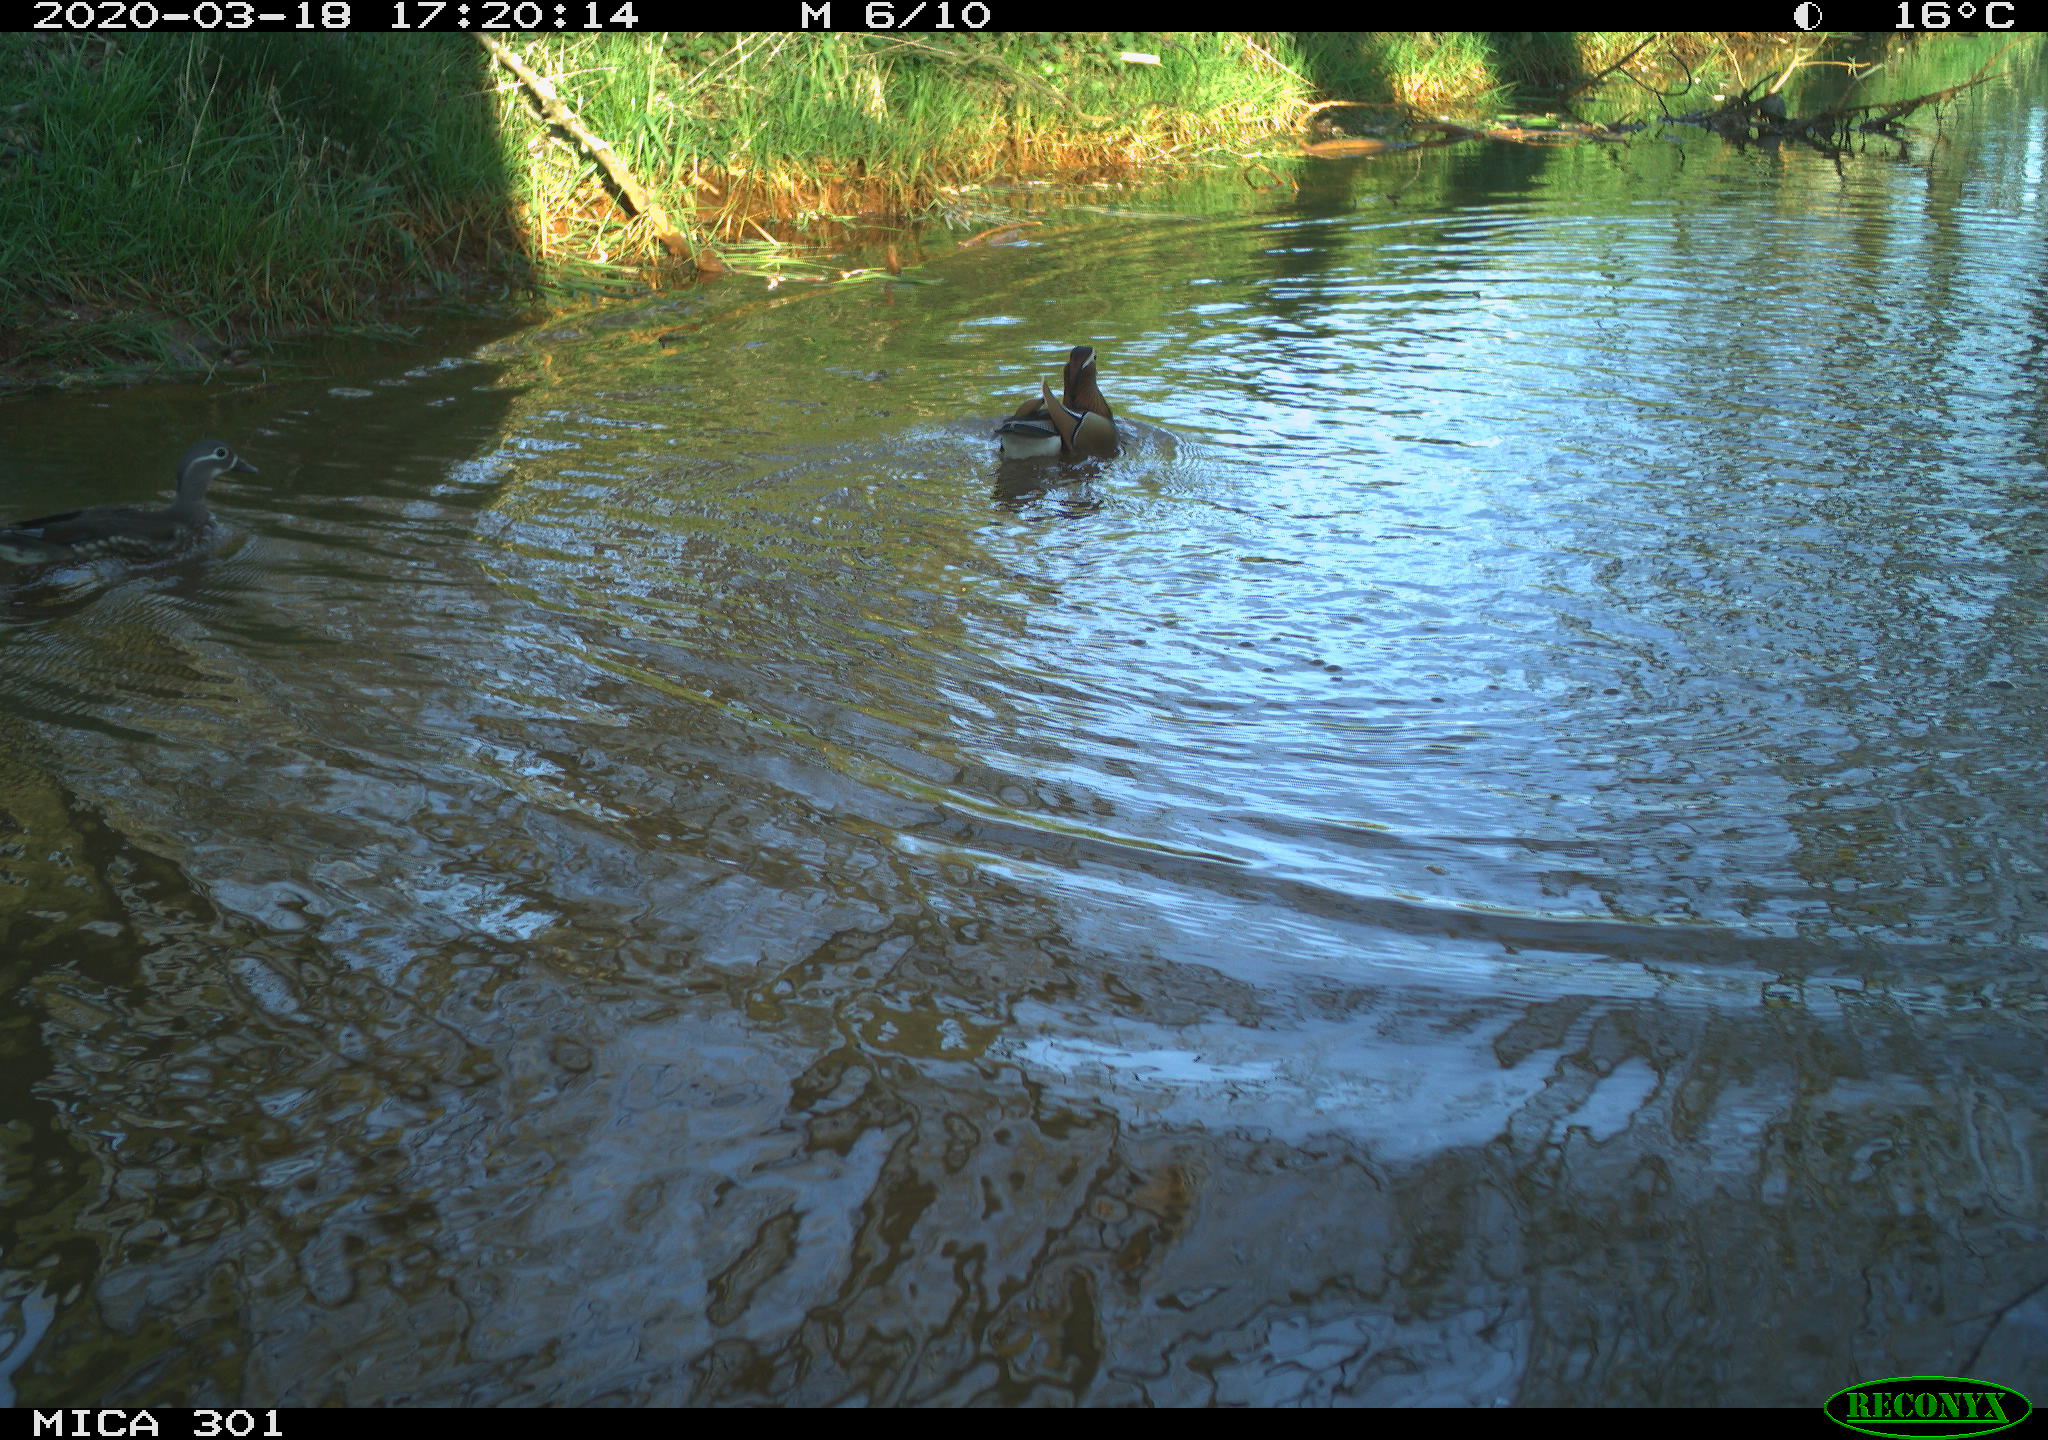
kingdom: Animalia
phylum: Chordata
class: Aves
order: Anseriformes
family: Anatidae
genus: Aix
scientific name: Aix galericulata
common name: Mandarin duck
